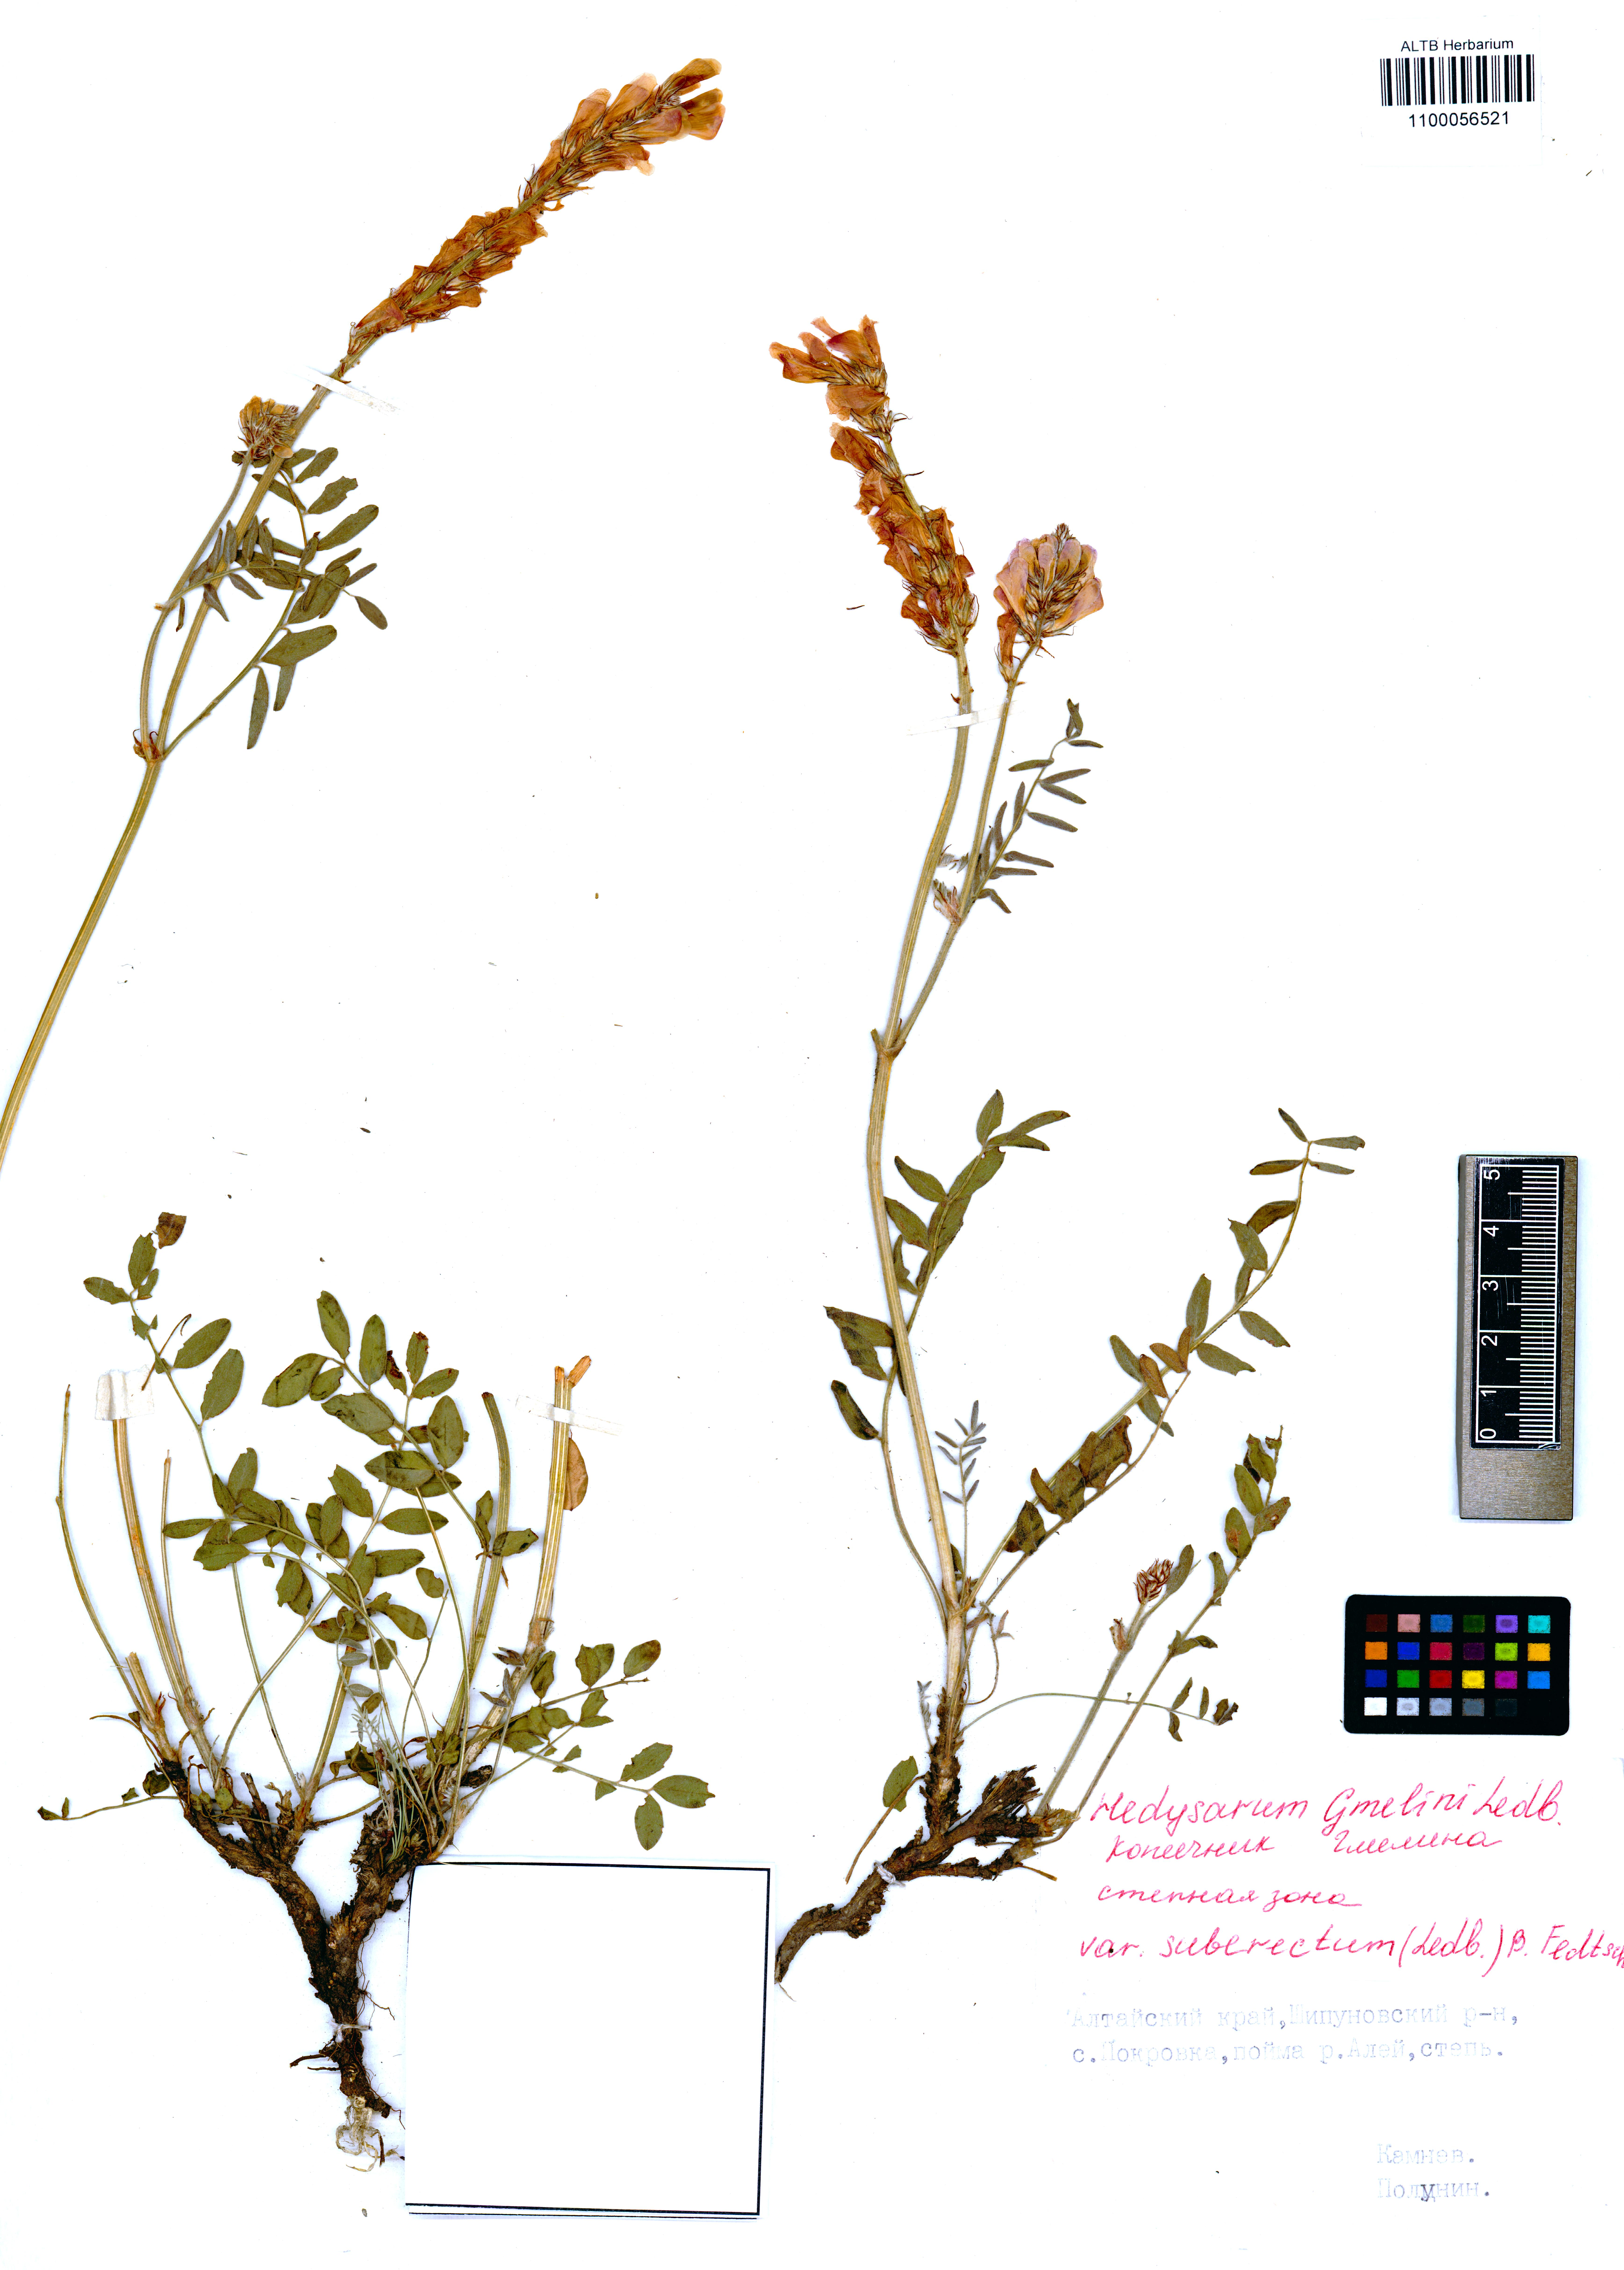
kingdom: Plantae
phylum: Tracheophyta
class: Magnoliopsida
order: Fabales
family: Fabaceae
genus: Hedysarum
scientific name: Hedysarum gmelinii
